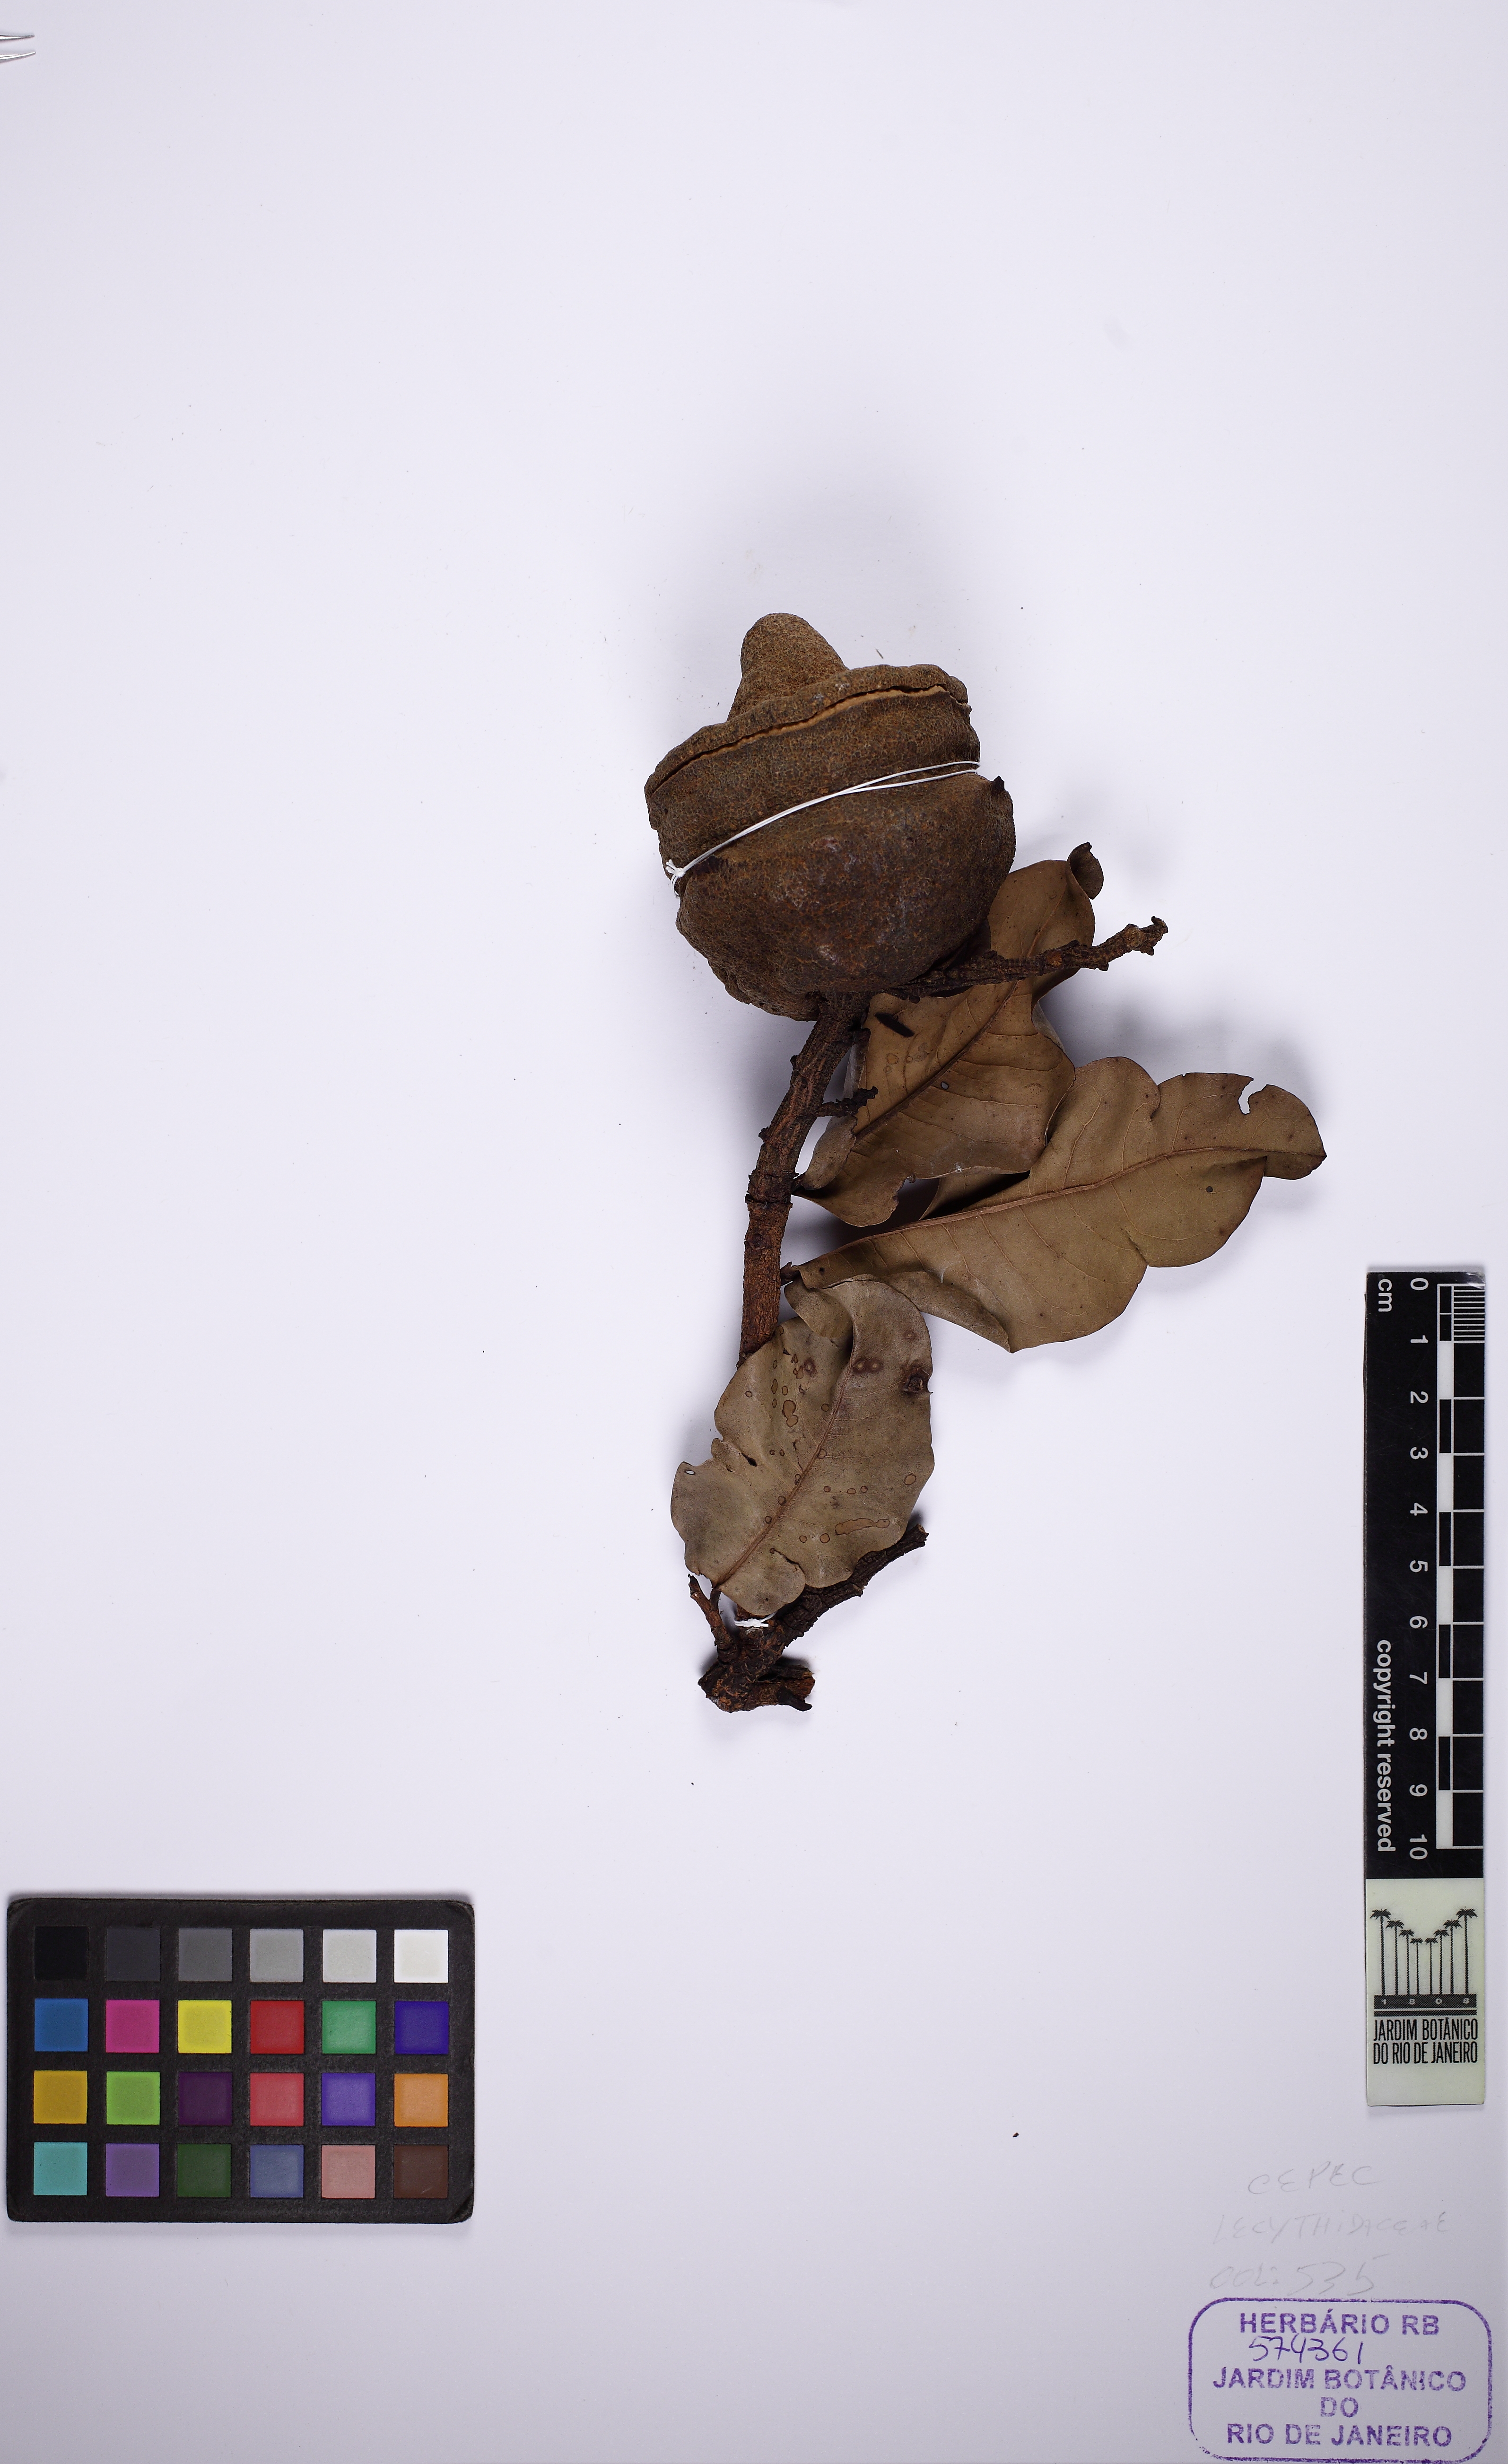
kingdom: Plantae
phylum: Tracheophyta
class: Magnoliopsida
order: Ericales
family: Lecythidaceae
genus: Eschweilera
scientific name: Eschweilera nana
